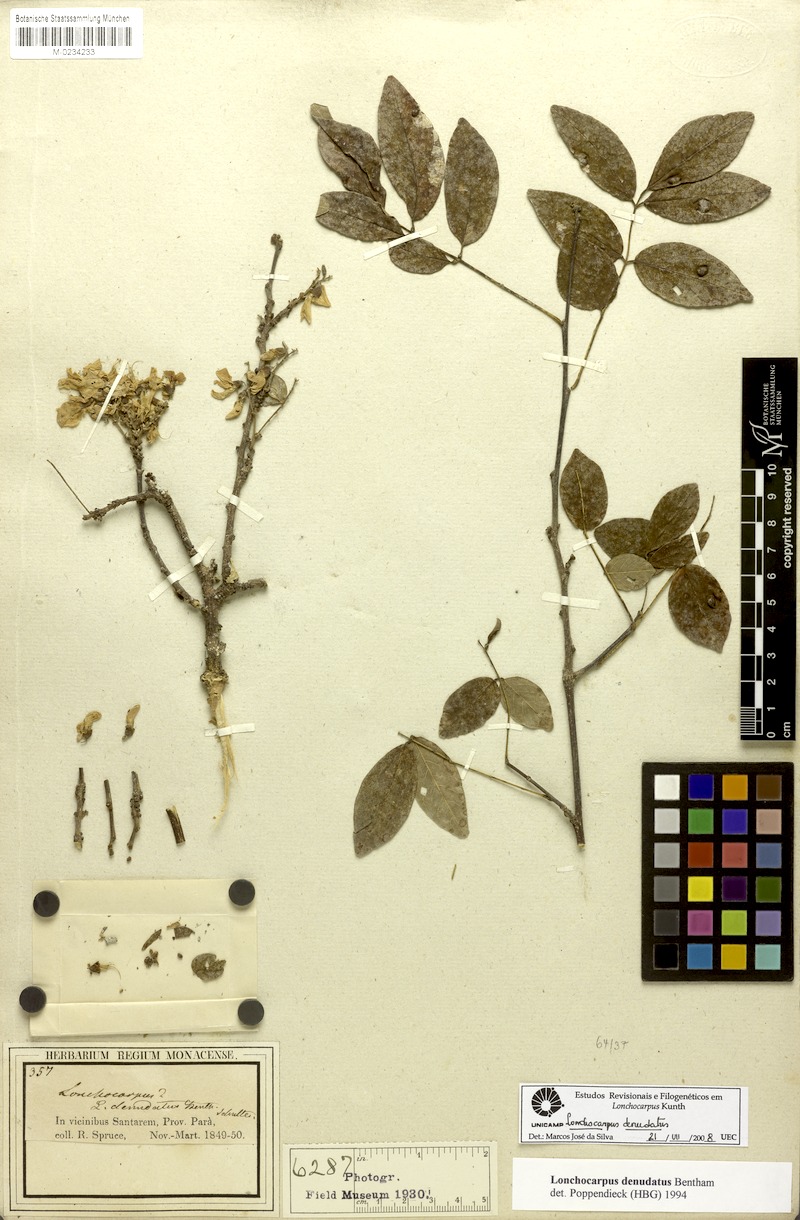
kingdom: Plantae
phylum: Tracheophyta
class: Magnoliopsida
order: Fabales
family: Fabaceae
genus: Muellera
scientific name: Muellera denudata
